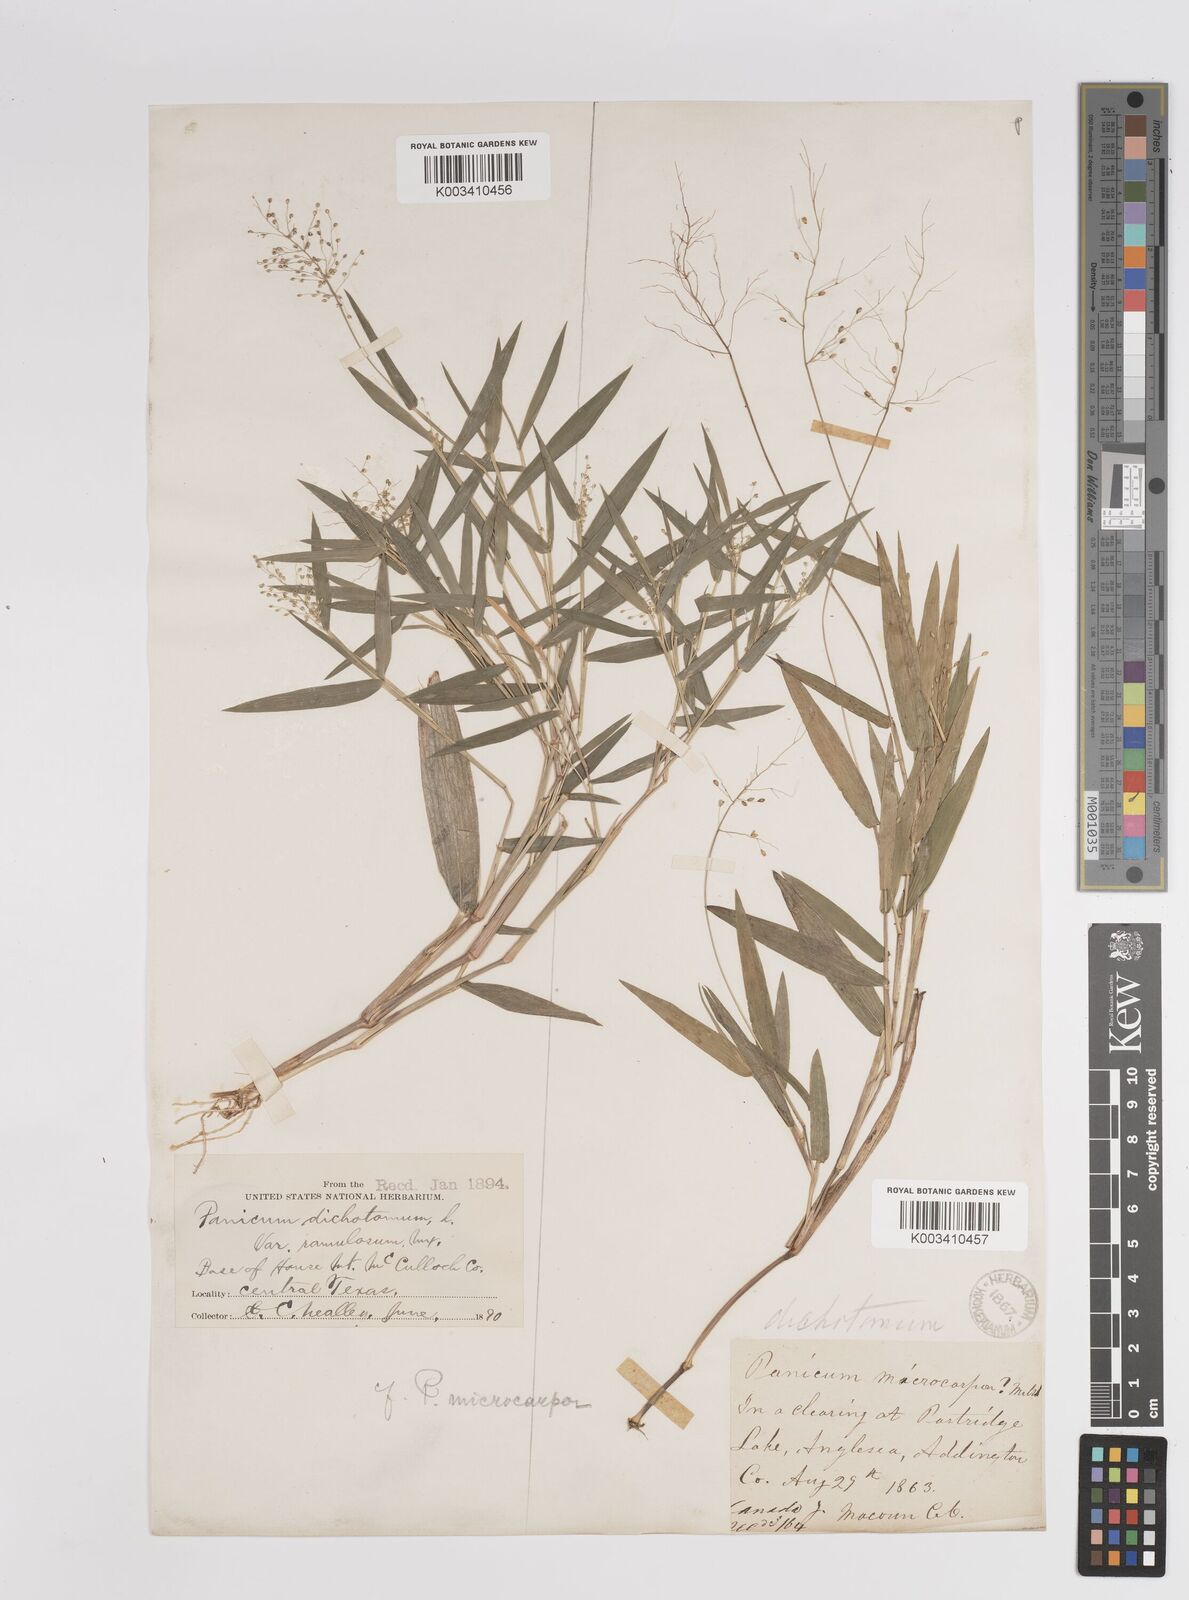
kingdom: Plantae
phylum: Tracheophyta
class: Liliopsida
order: Poales
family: Poaceae
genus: Dichanthelium
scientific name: Dichanthelium polyanthes
